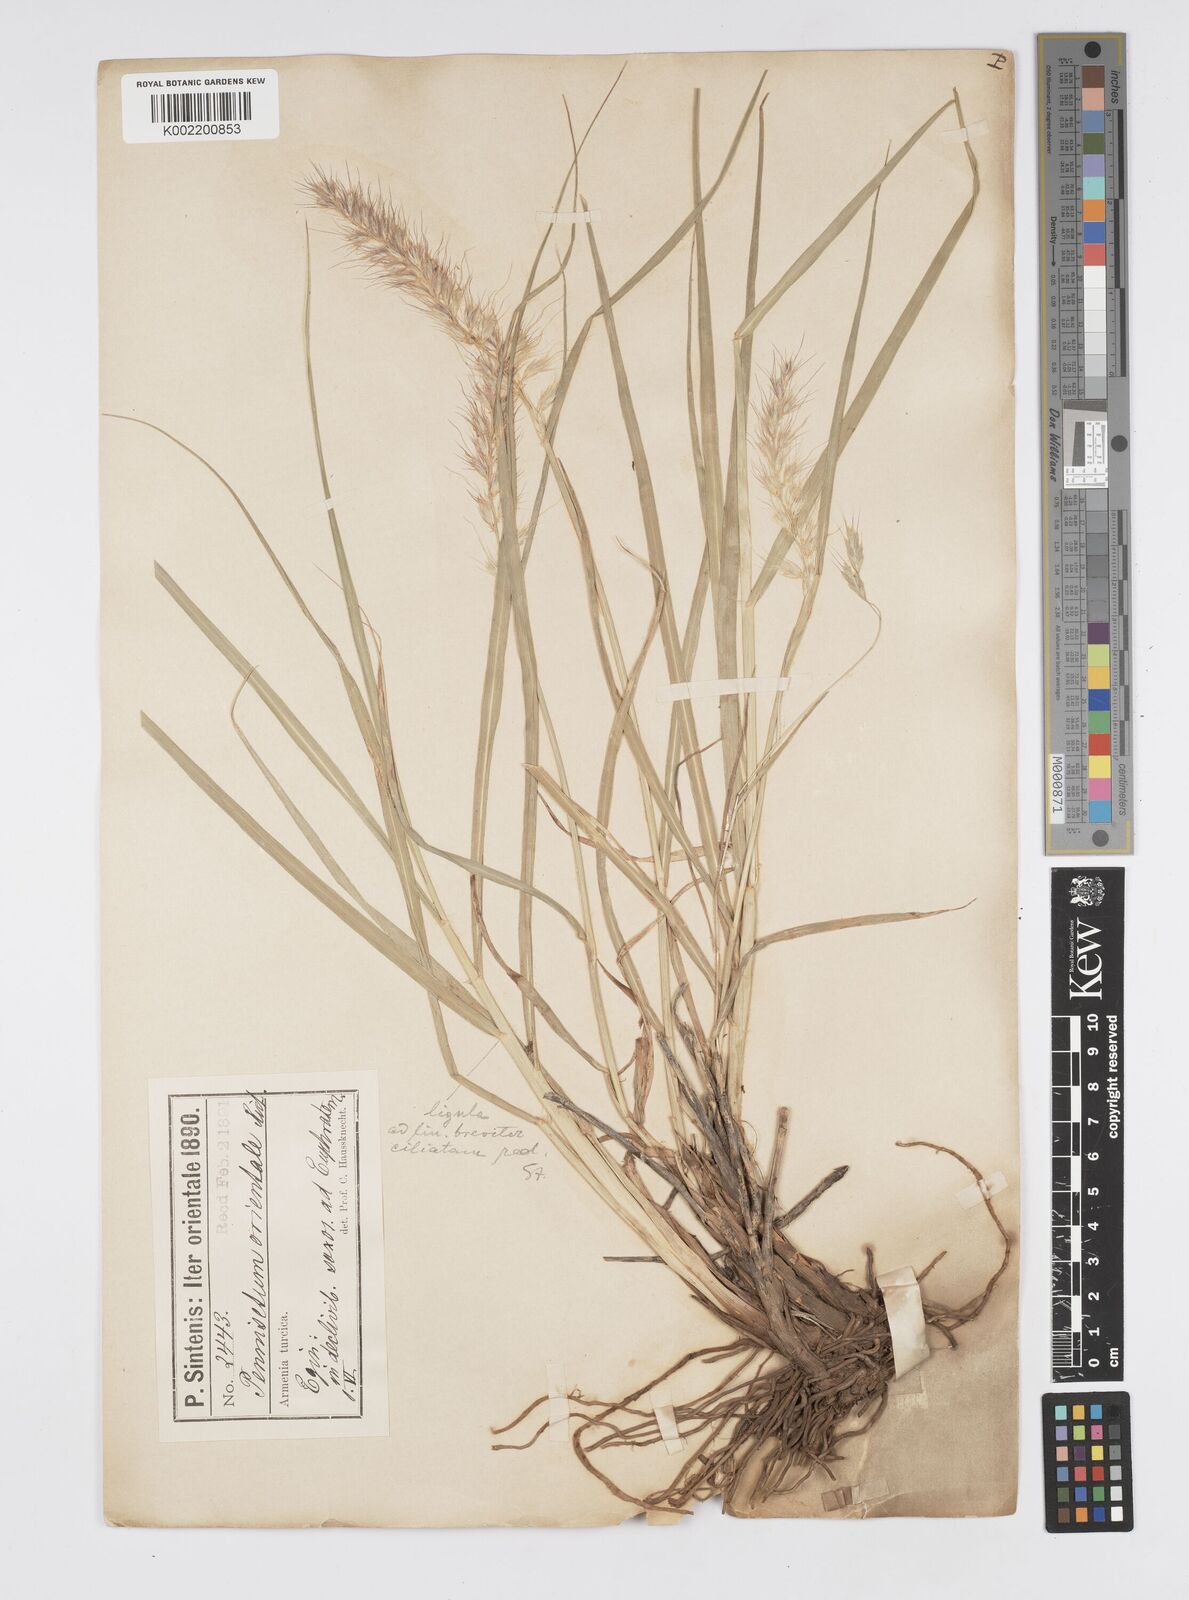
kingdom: Plantae
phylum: Tracheophyta
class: Liliopsida
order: Poales
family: Poaceae
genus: Cenchrus
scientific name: Cenchrus orientalis
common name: Oriental fountain grass
